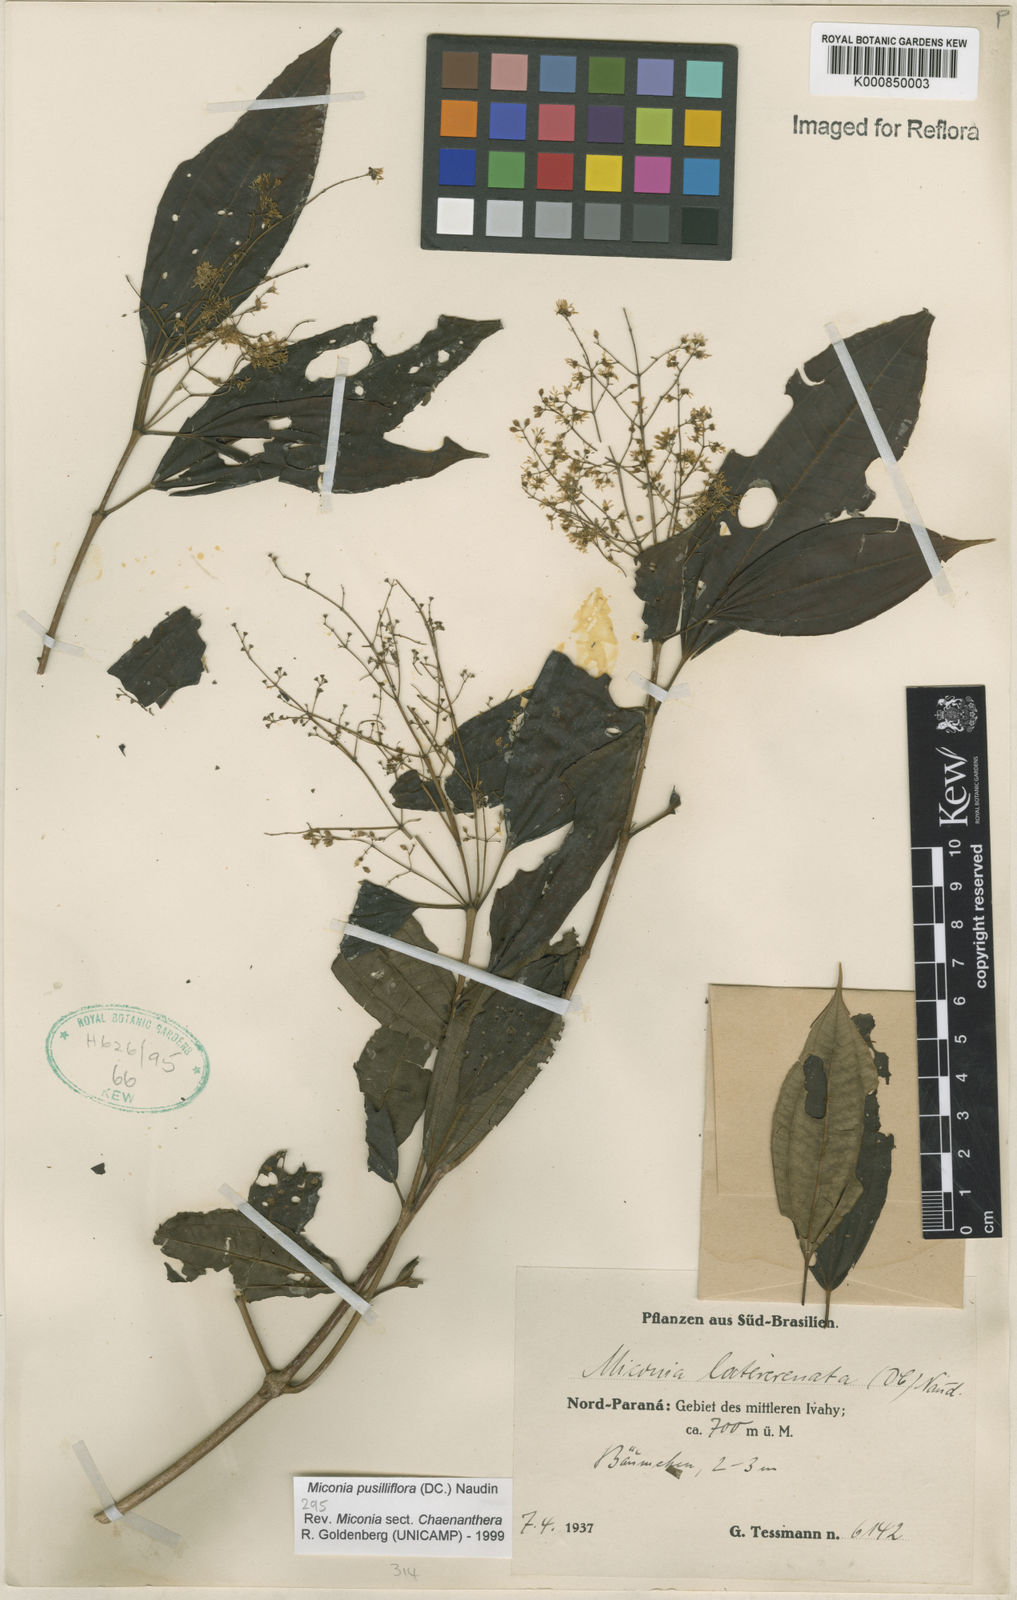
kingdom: Plantae
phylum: Tracheophyta
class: Magnoliopsida
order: Myrtales
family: Melastomataceae
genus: Miconia
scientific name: Miconia pusilliflora
